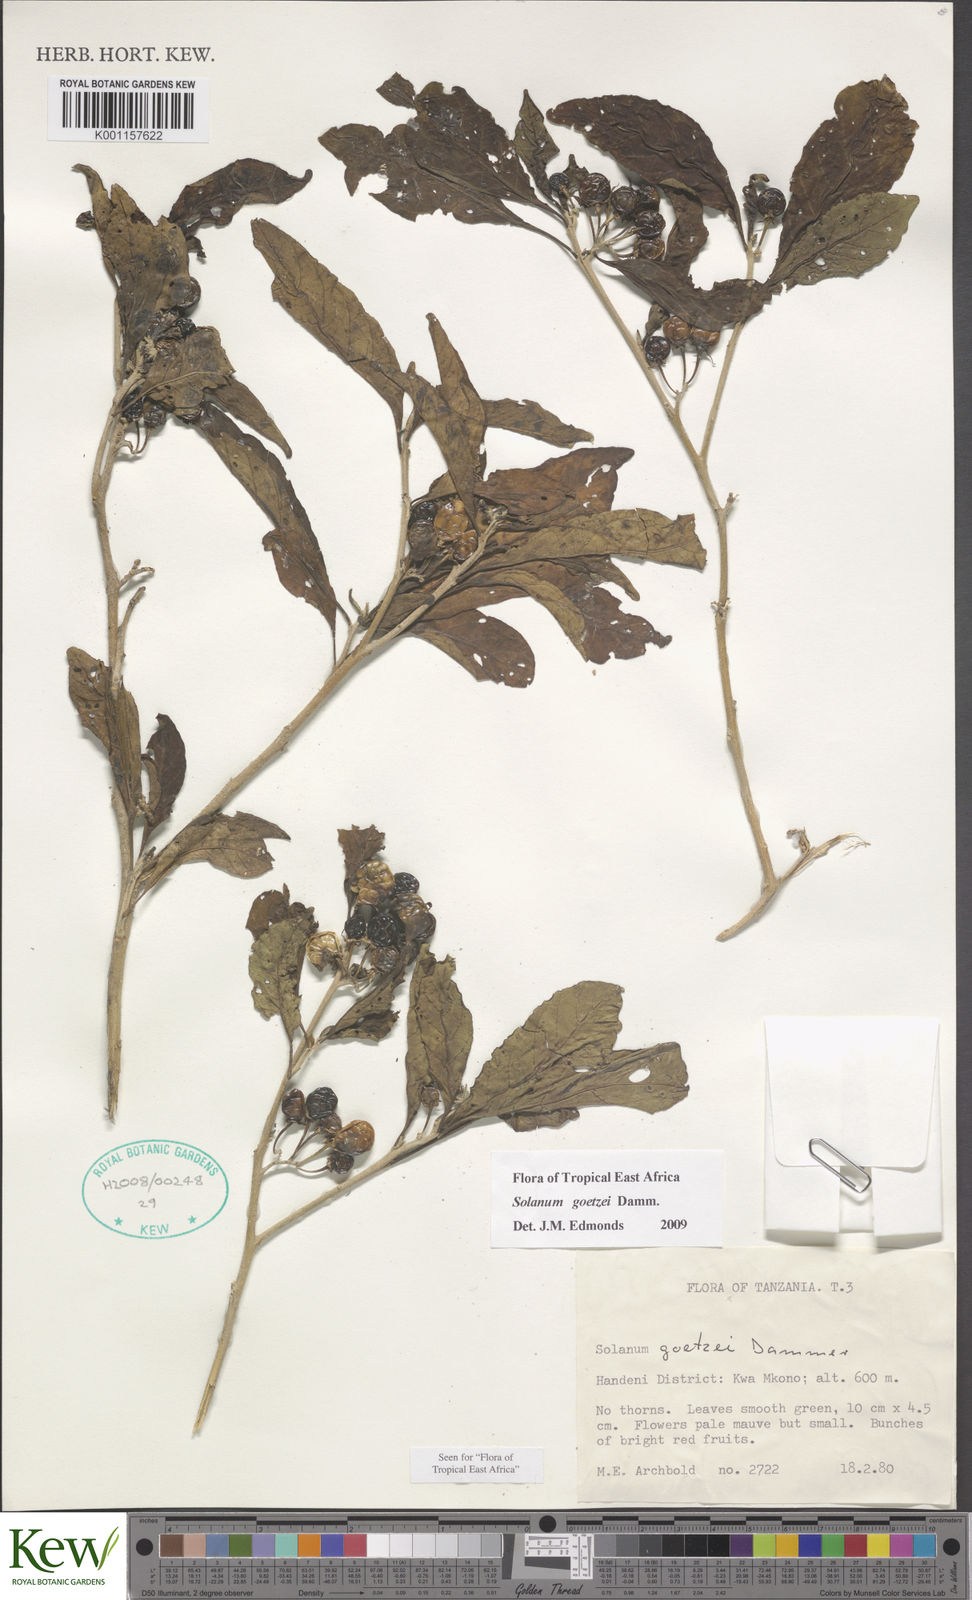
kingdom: Plantae
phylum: Tracheophyta
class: Magnoliopsida
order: Solanales
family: Solanaceae
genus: Solanum
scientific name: Solanum goetzei
